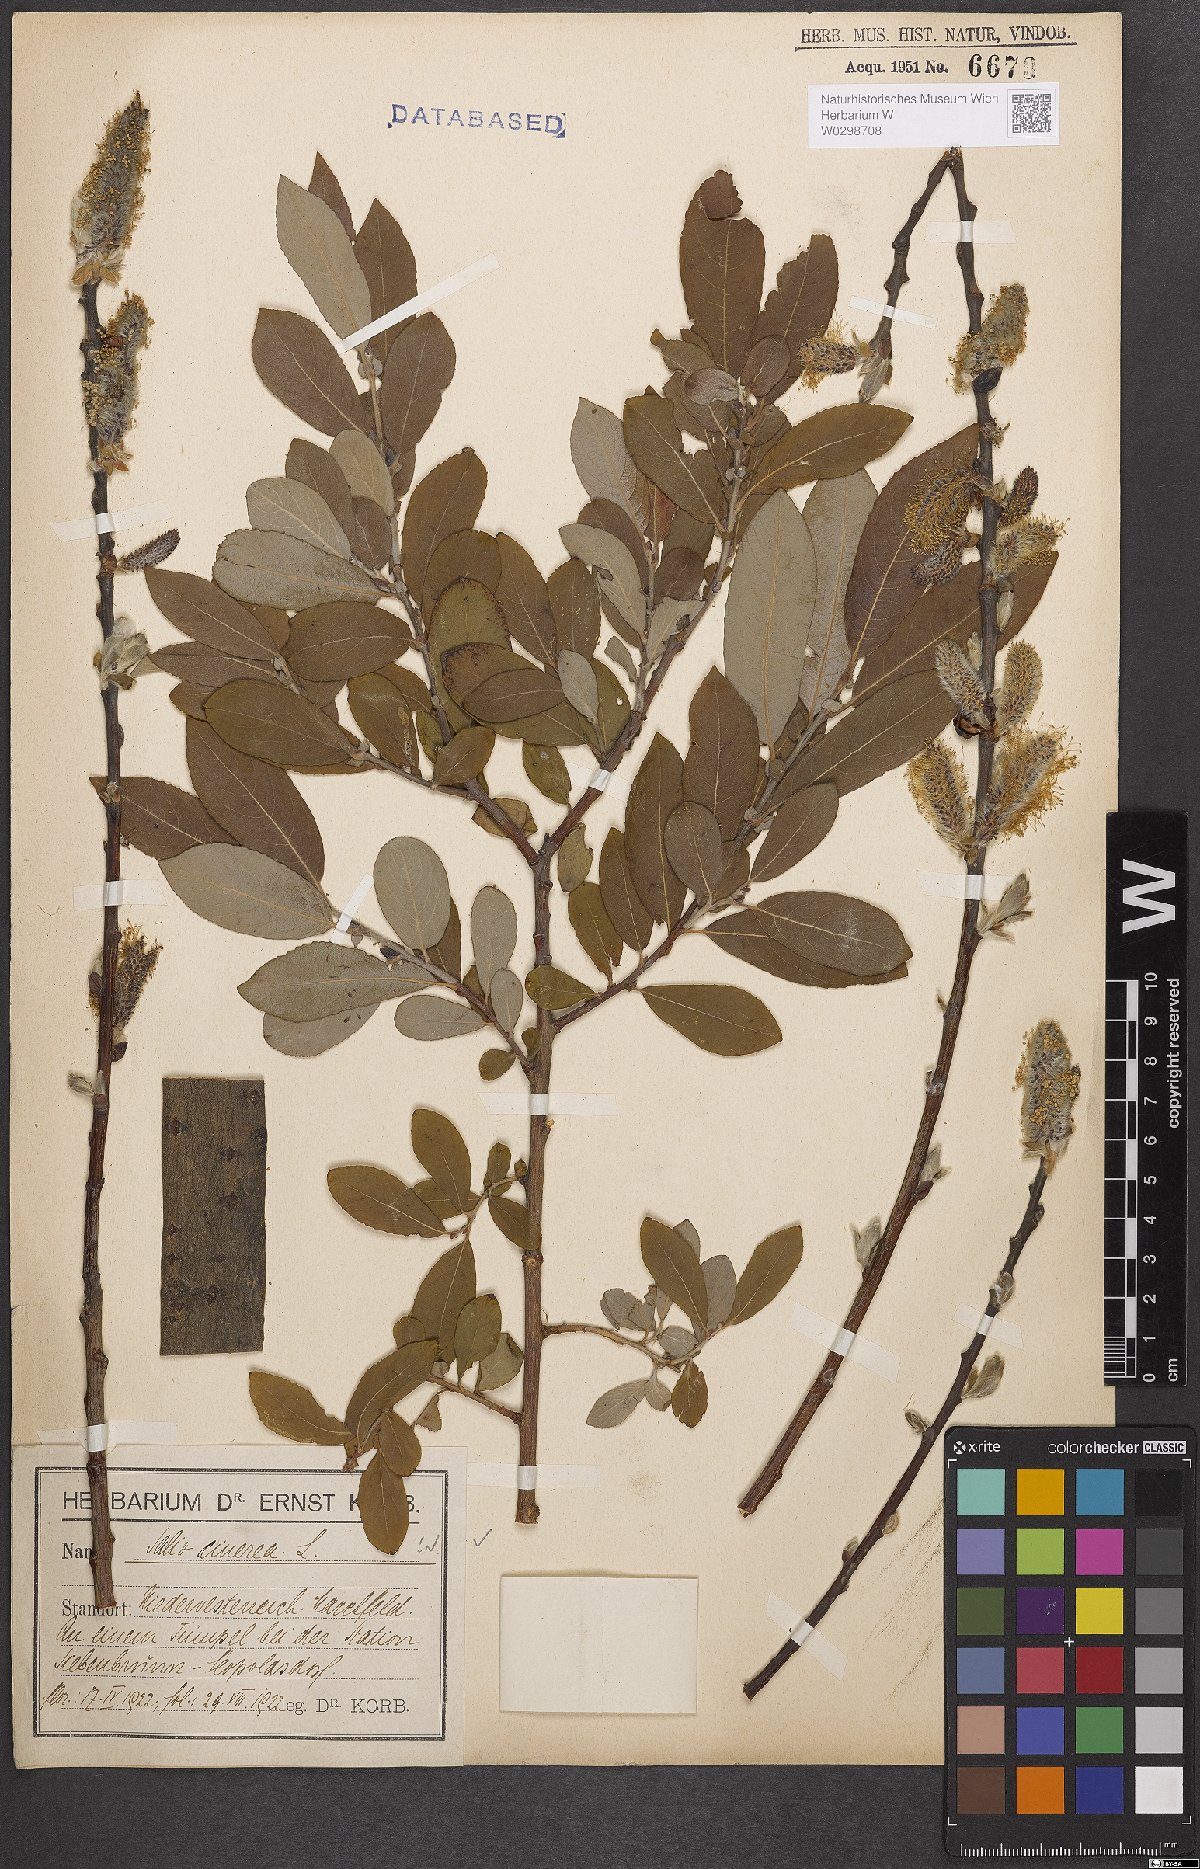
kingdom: Plantae
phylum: Tracheophyta
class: Magnoliopsida
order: Malpighiales
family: Salicaceae
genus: Salix
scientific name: Salix cinerea
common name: Common sallow
